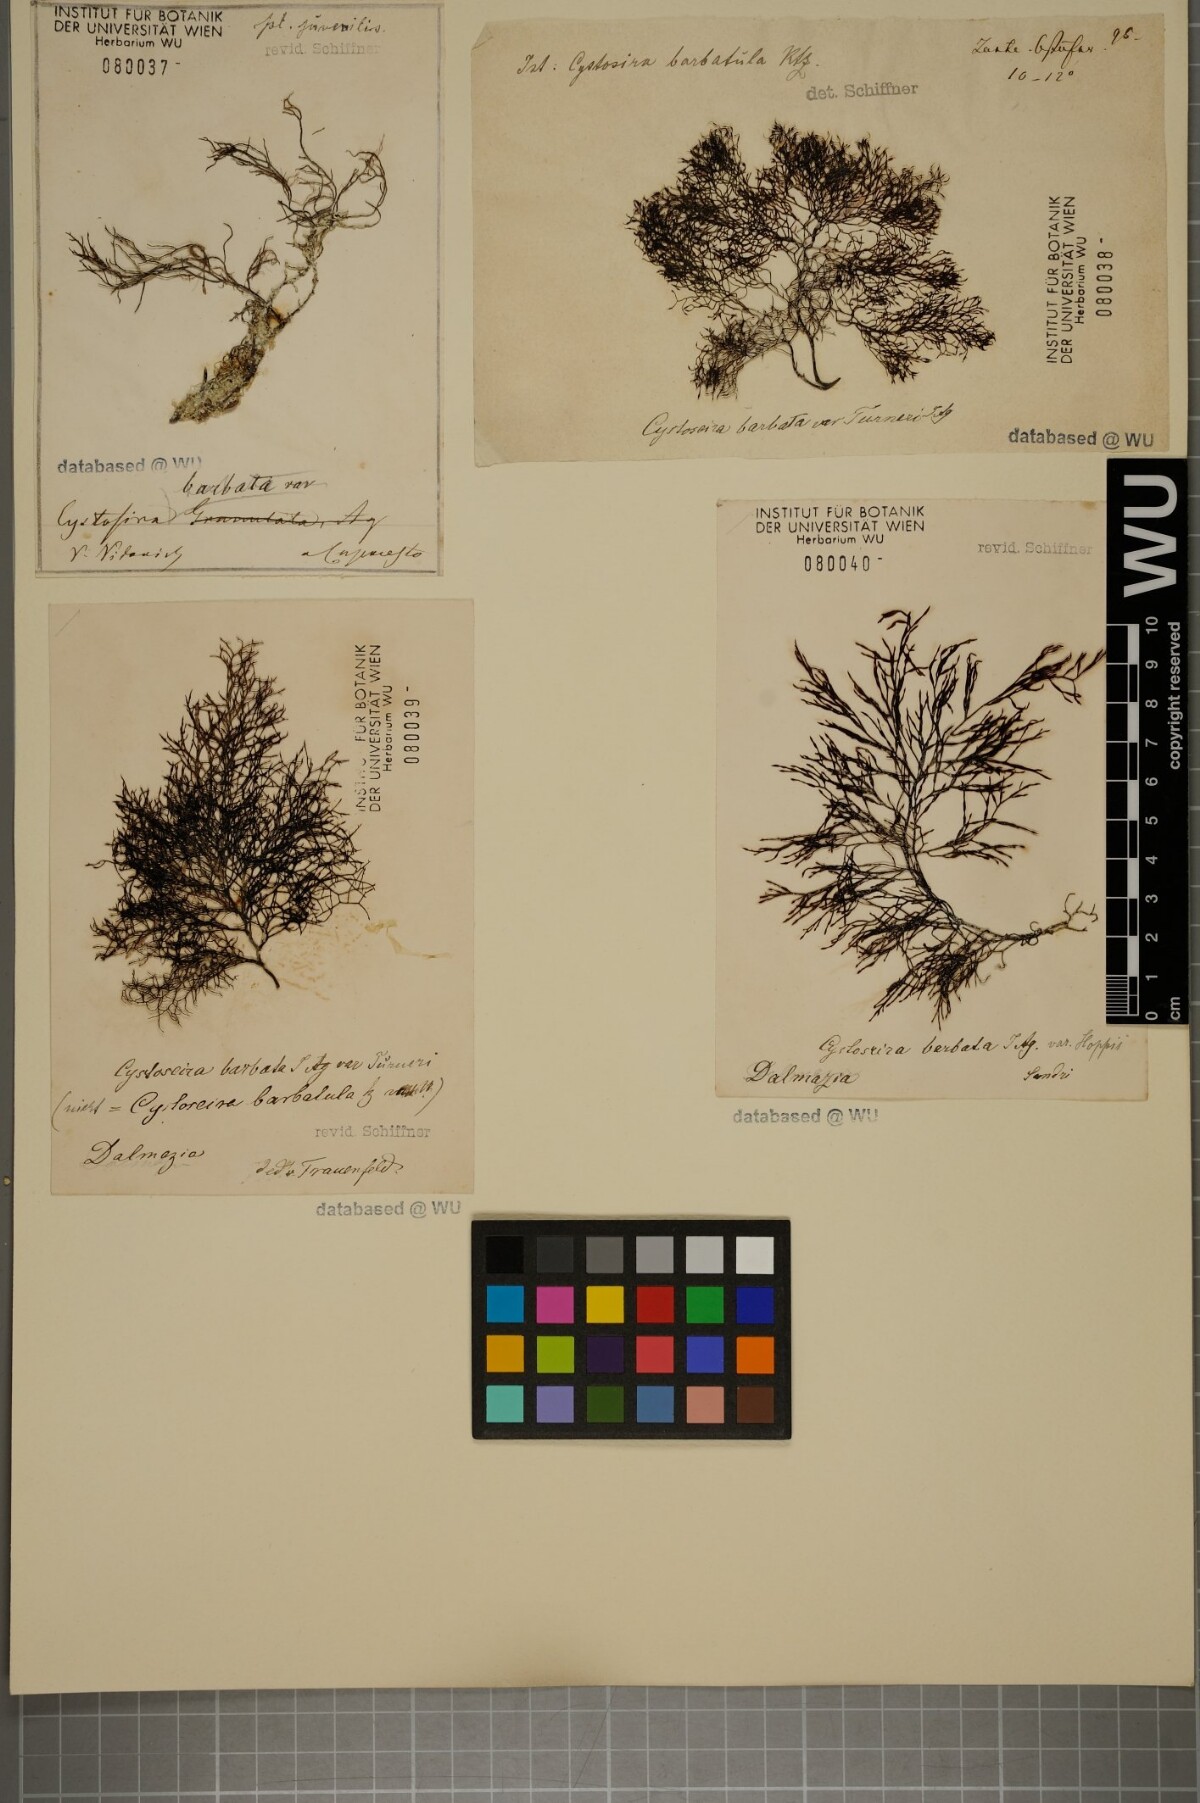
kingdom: Chromista
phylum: Ochrophyta
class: Phaeophyceae
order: Fucales
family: Sargassaceae
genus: Cystoseira
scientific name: Cystoseira Gongolaria barbata
